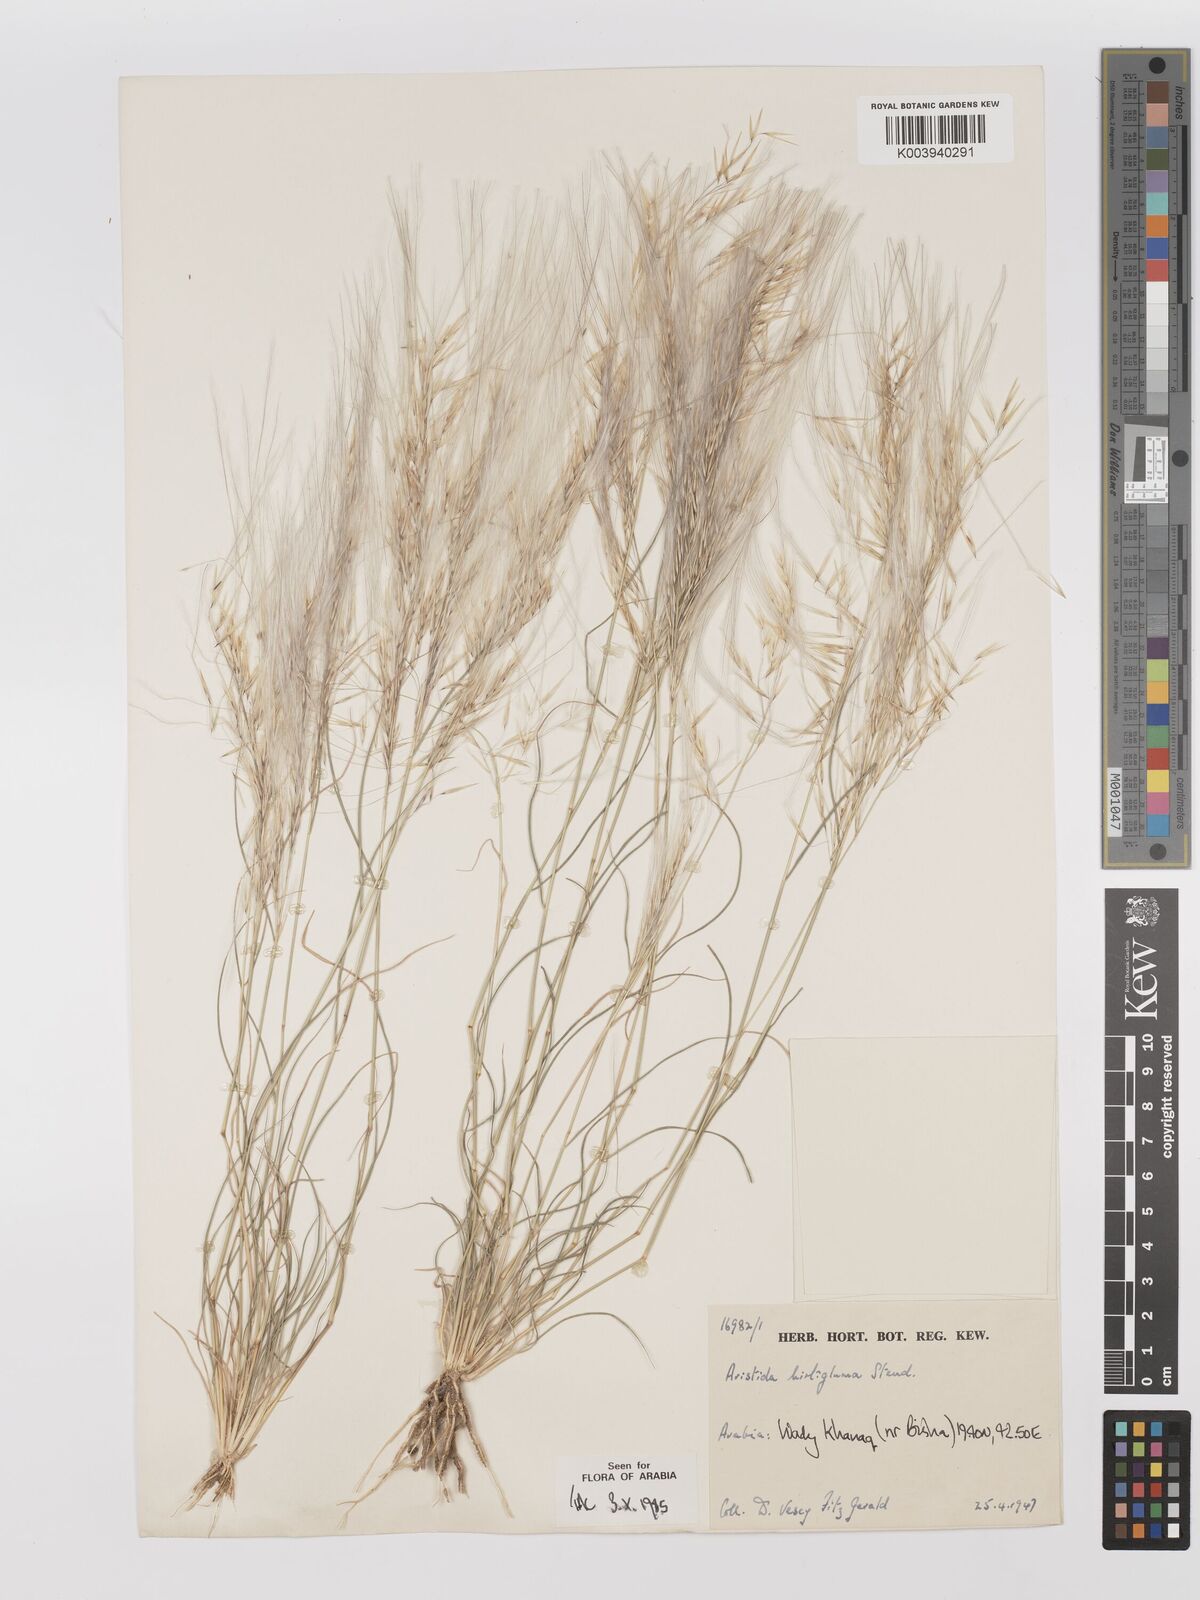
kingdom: Plantae
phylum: Tracheophyta
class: Liliopsida
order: Poales
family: Poaceae
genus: Stipagrostis
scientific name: Stipagrostis hirtigluma
